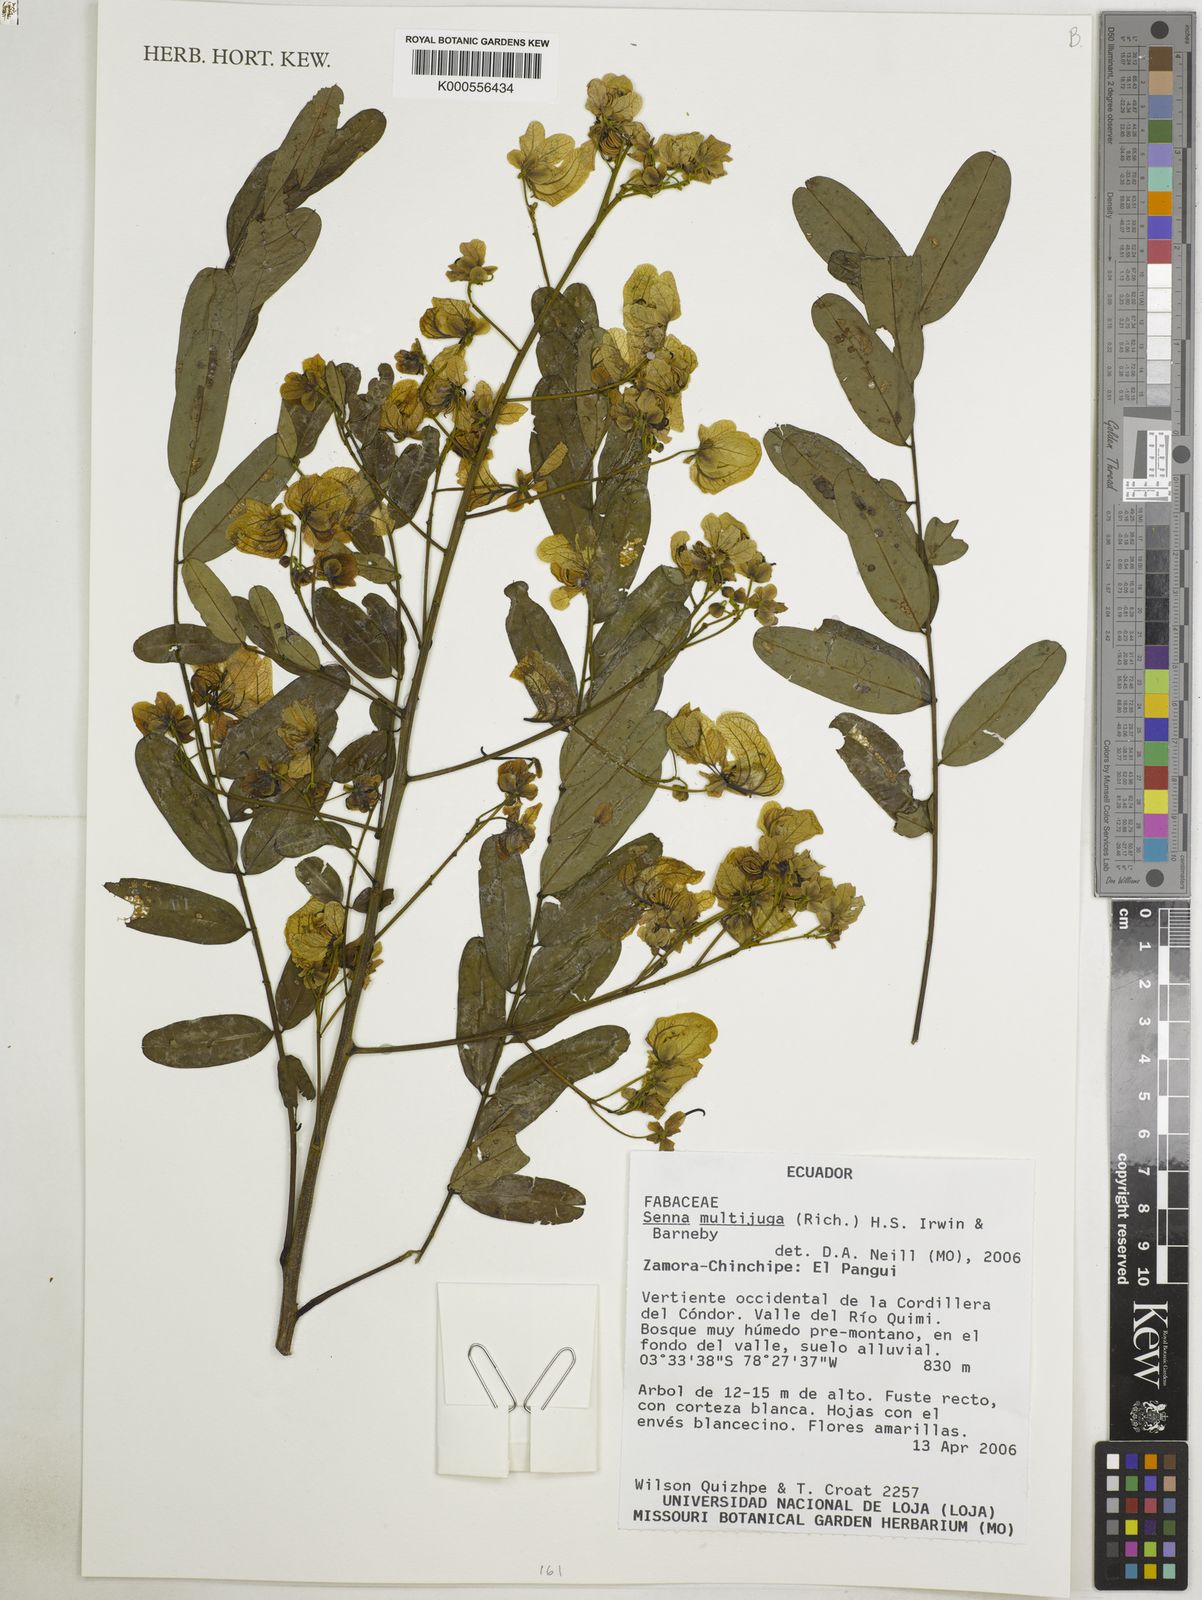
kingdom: Plantae
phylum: Tracheophyta
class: Magnoliopsida
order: Fabales
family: Fabaceae
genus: Senna
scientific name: Senna multijuga
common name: False sicklepod
